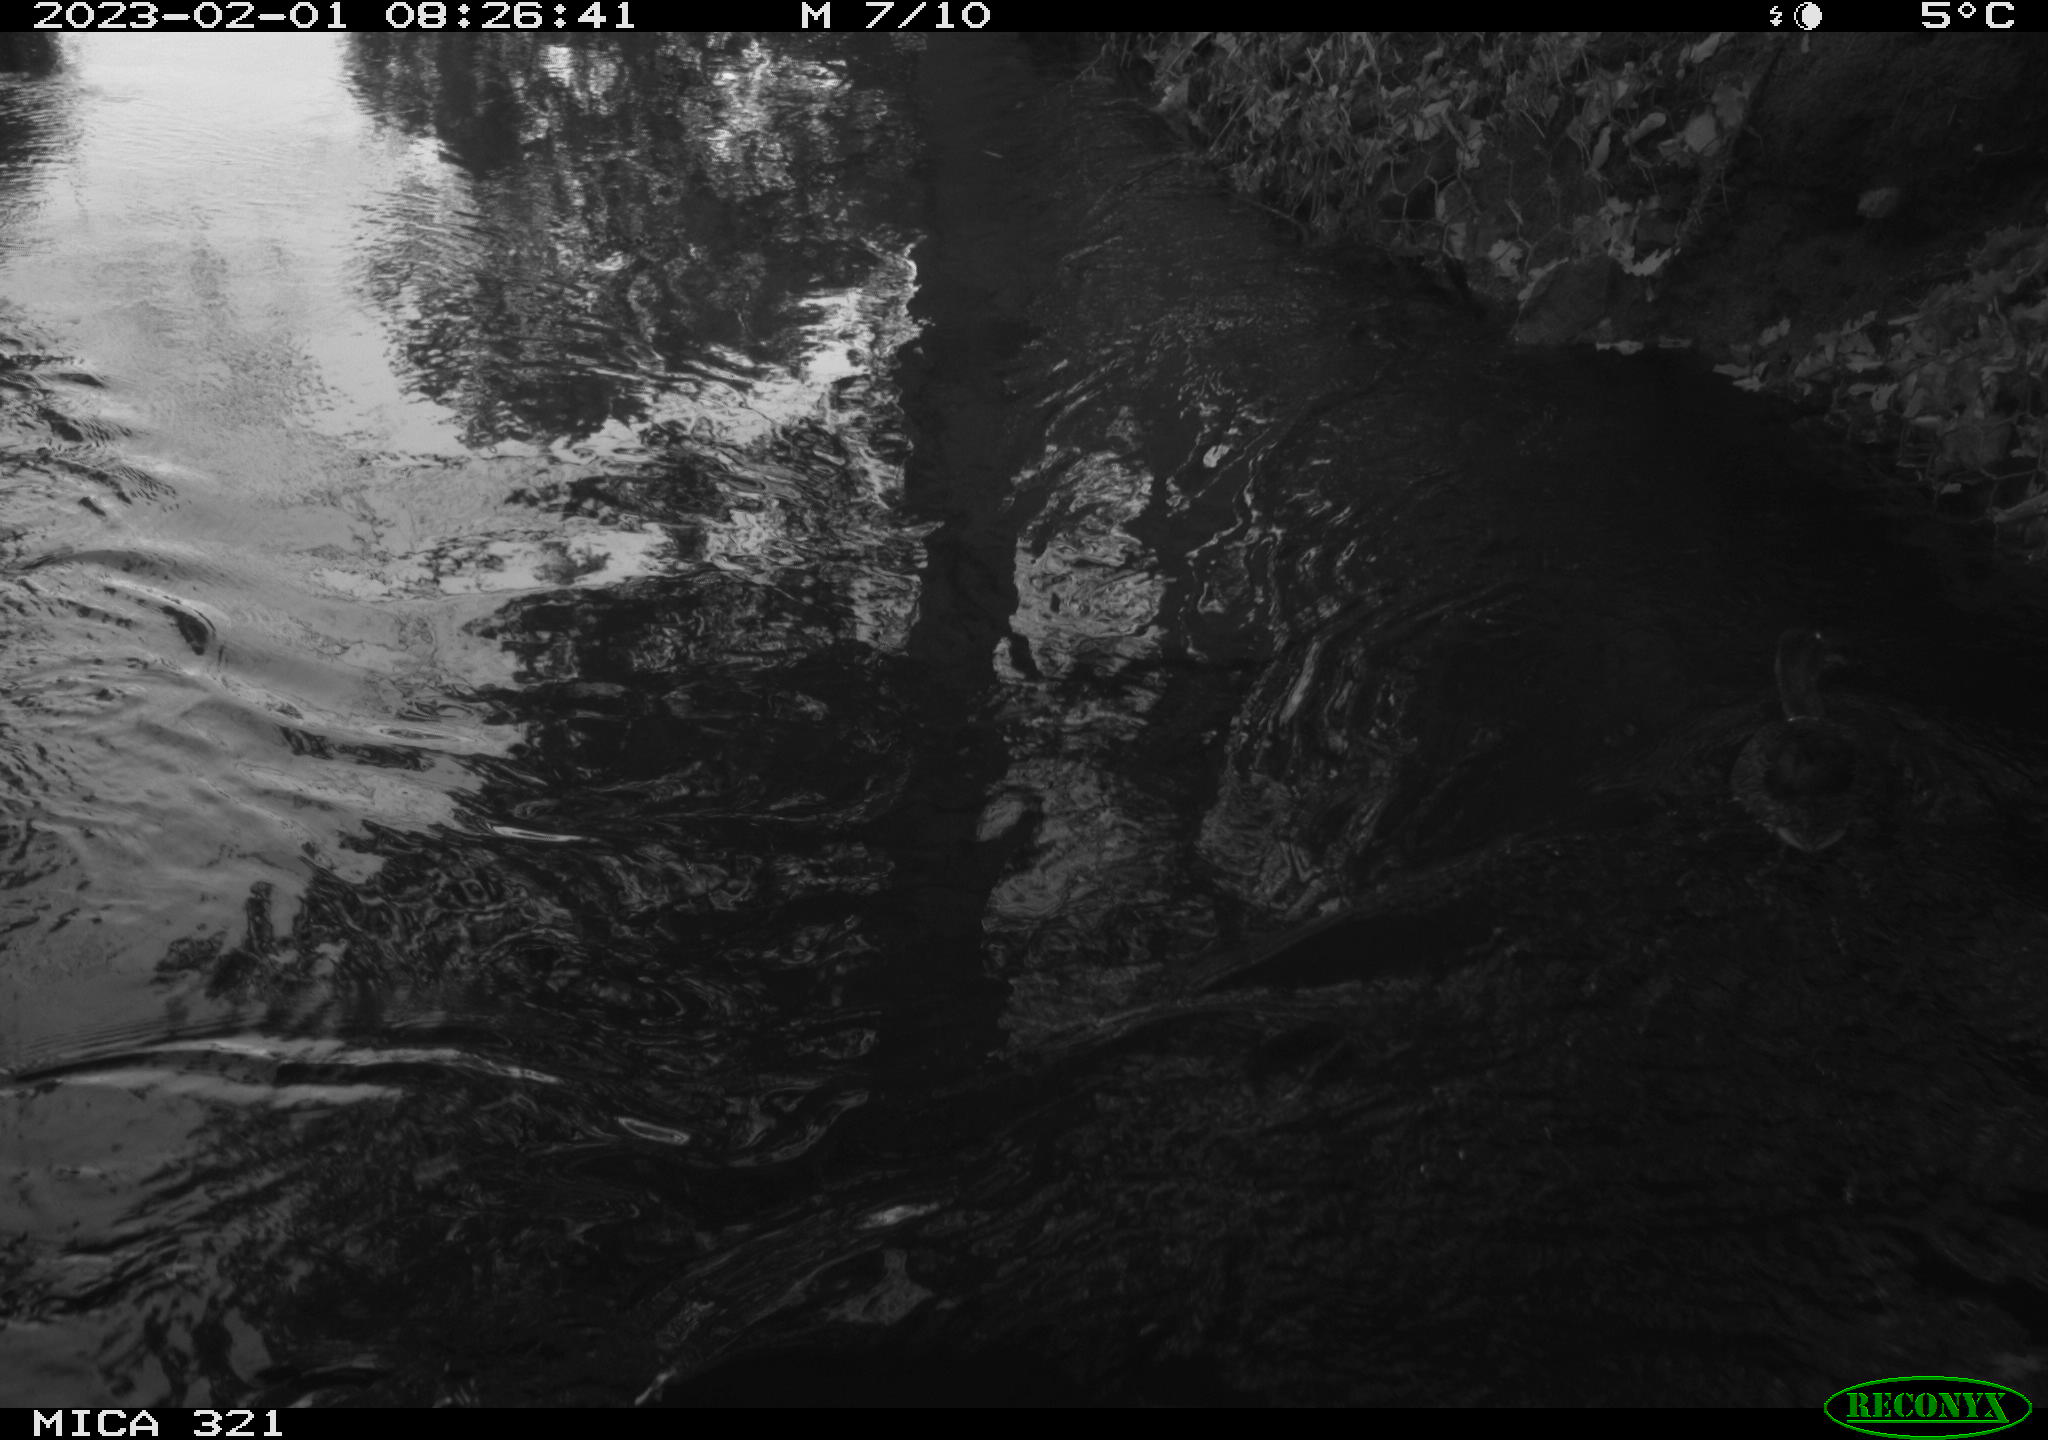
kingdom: Animalia
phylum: Chordata
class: Aves
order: Anseriformes
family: Anatidae
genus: Anas
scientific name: Anas
